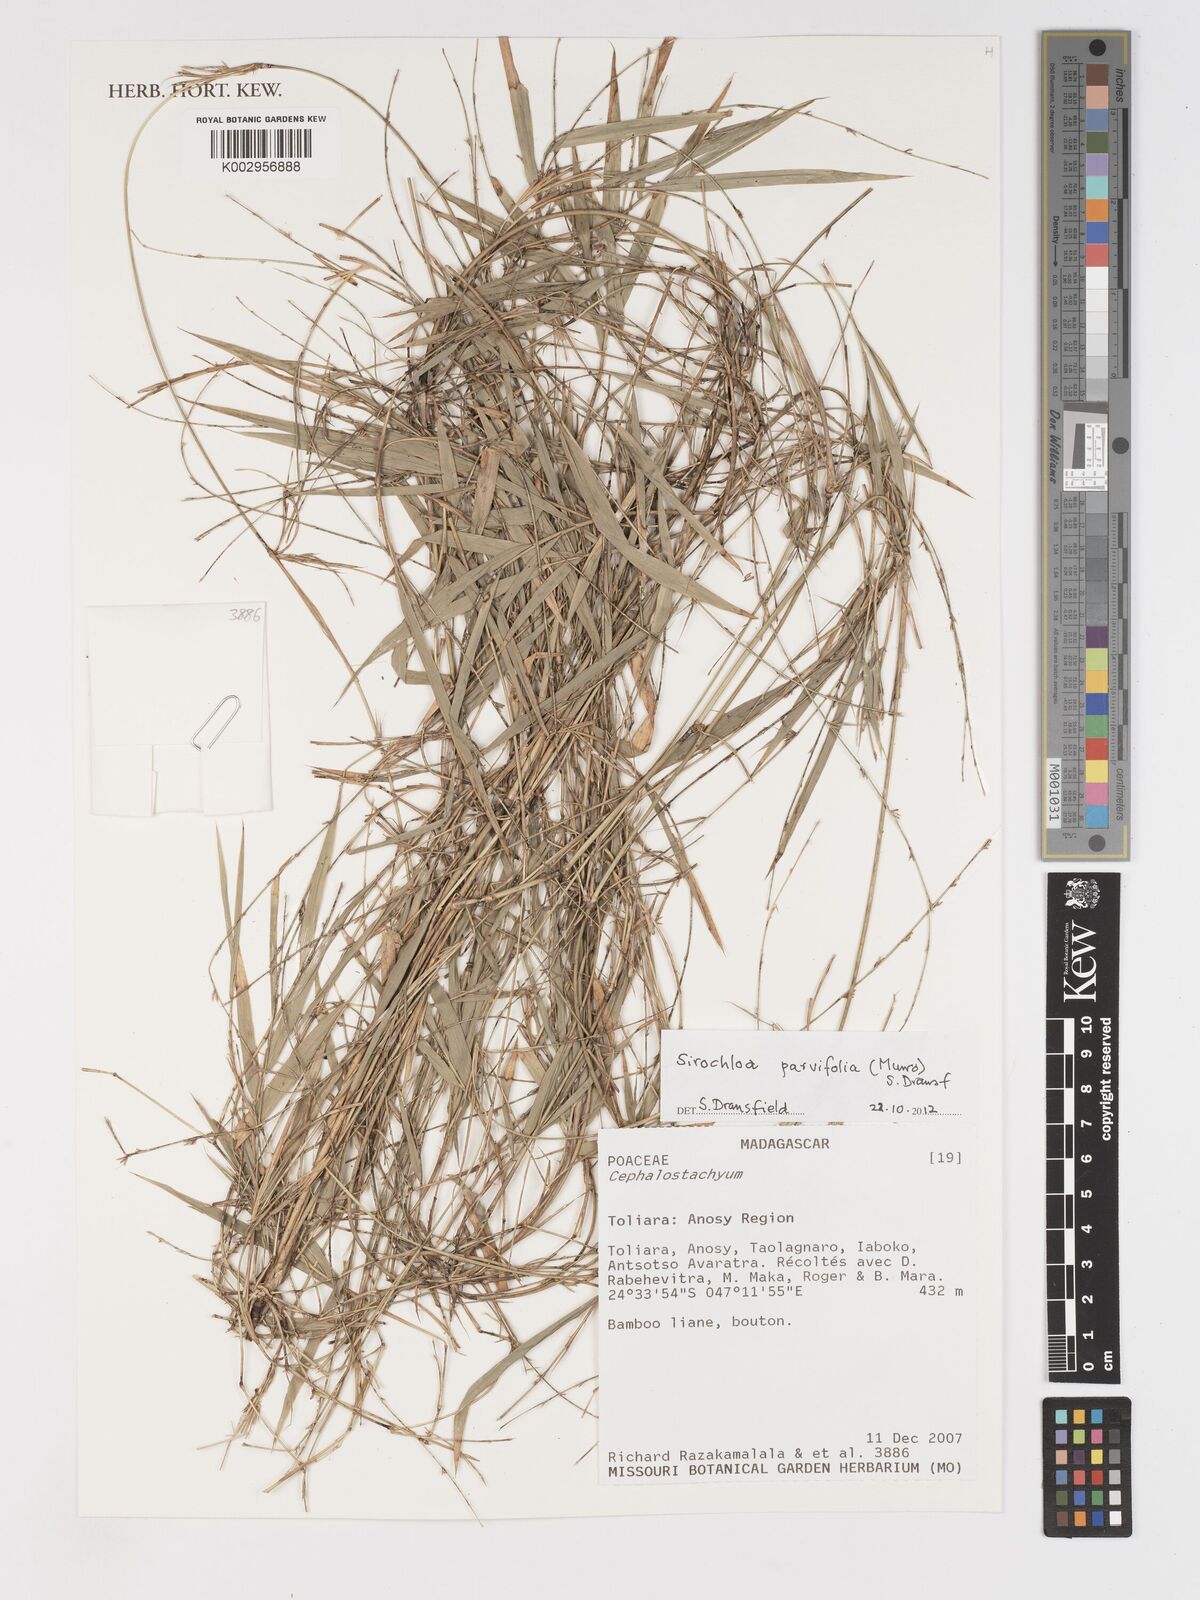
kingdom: Plantae
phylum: Tracheophyta
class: Liliopsida
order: Poales
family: Poaceae
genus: Sirochloa
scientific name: Sirochloa parvifolia
